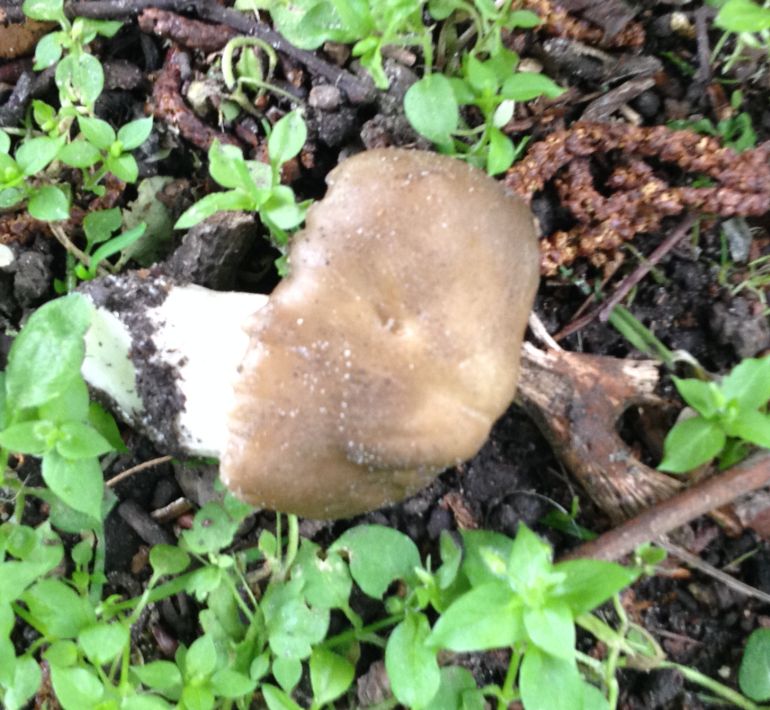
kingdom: Fungi
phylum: Basidiomycota
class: Agaricomycetes
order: Agaricales
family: Entolomataceae
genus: Entoloma
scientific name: Entoloma clypeatum
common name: flammet rødblad
